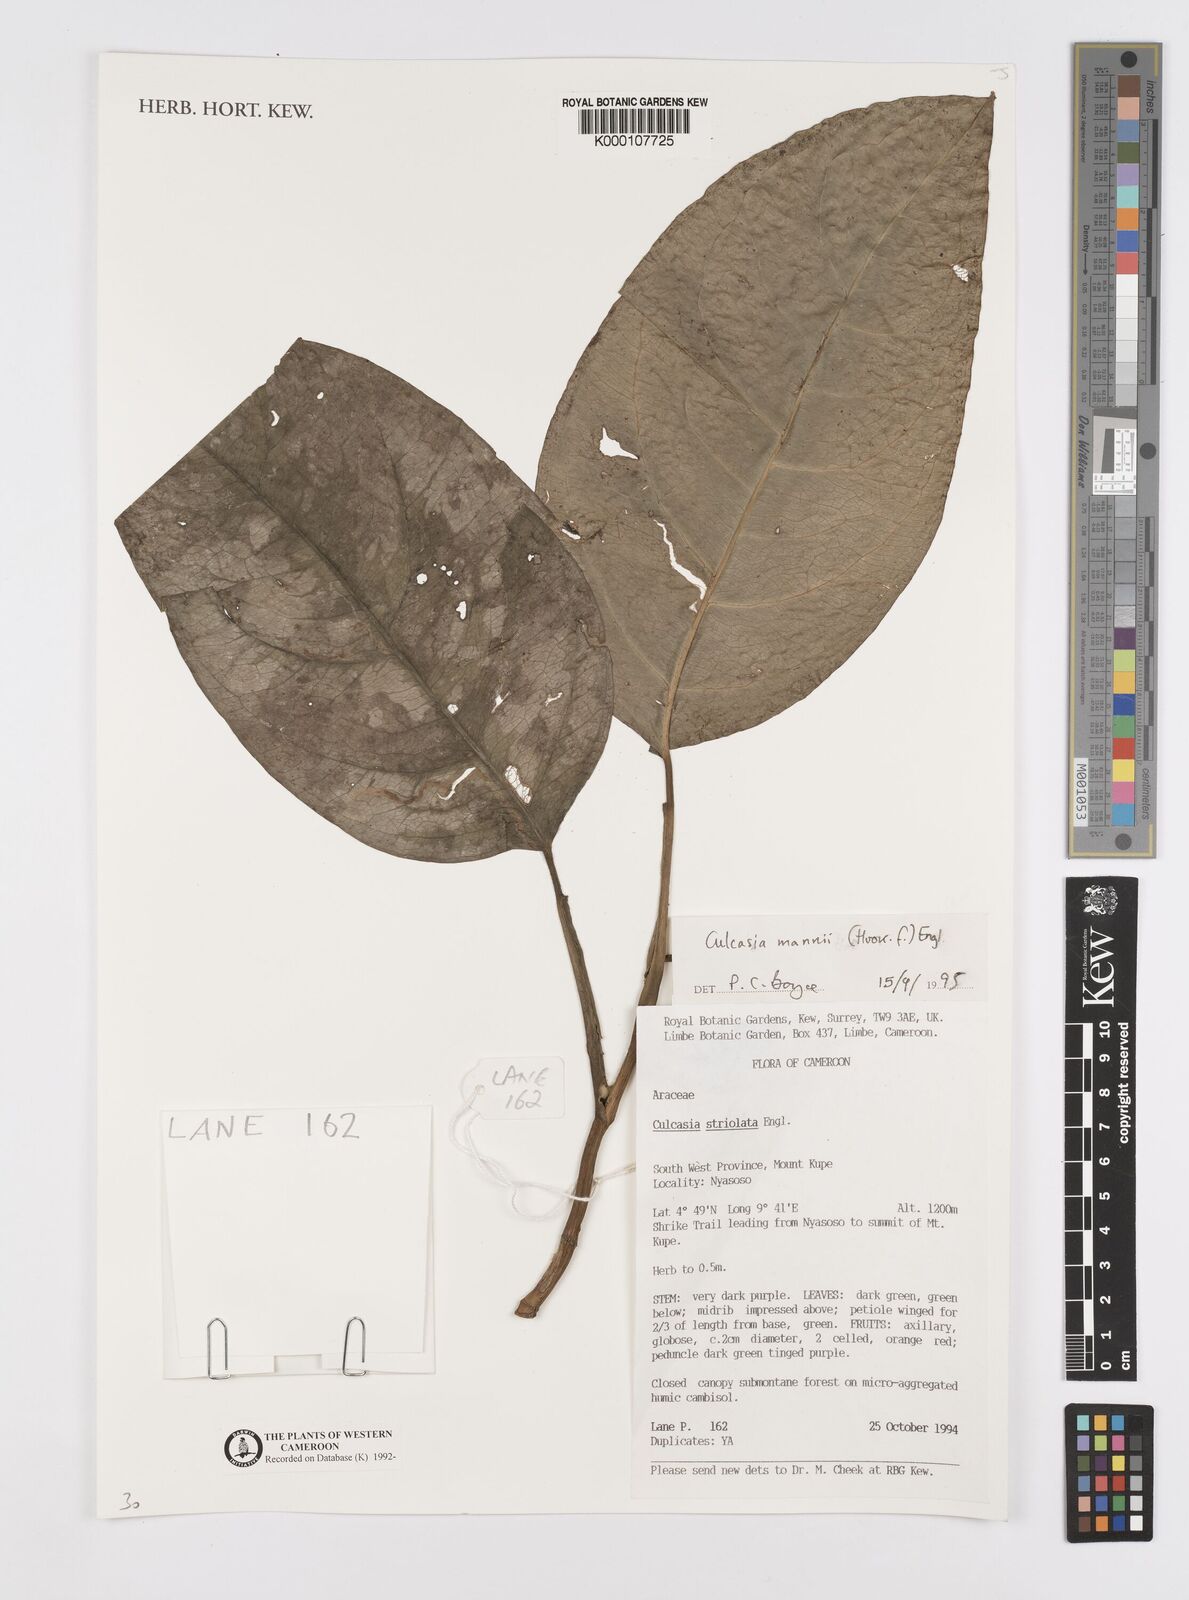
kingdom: Plantae
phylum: Tracheophyta
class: Liliopsida
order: Alismatales
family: Araceae
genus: Culcasia
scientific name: Culcasia mannii
